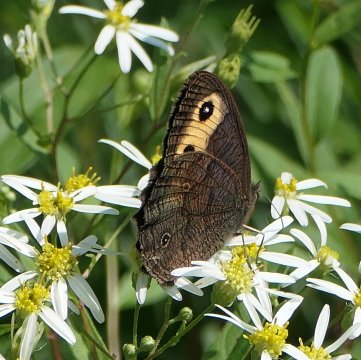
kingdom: Animalia
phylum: Arthropoda
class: Insecta
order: Lepidoptera
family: Nymphalidae
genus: Cercyonis
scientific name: Cercyonis pegala
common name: Common Wood-Nymph
